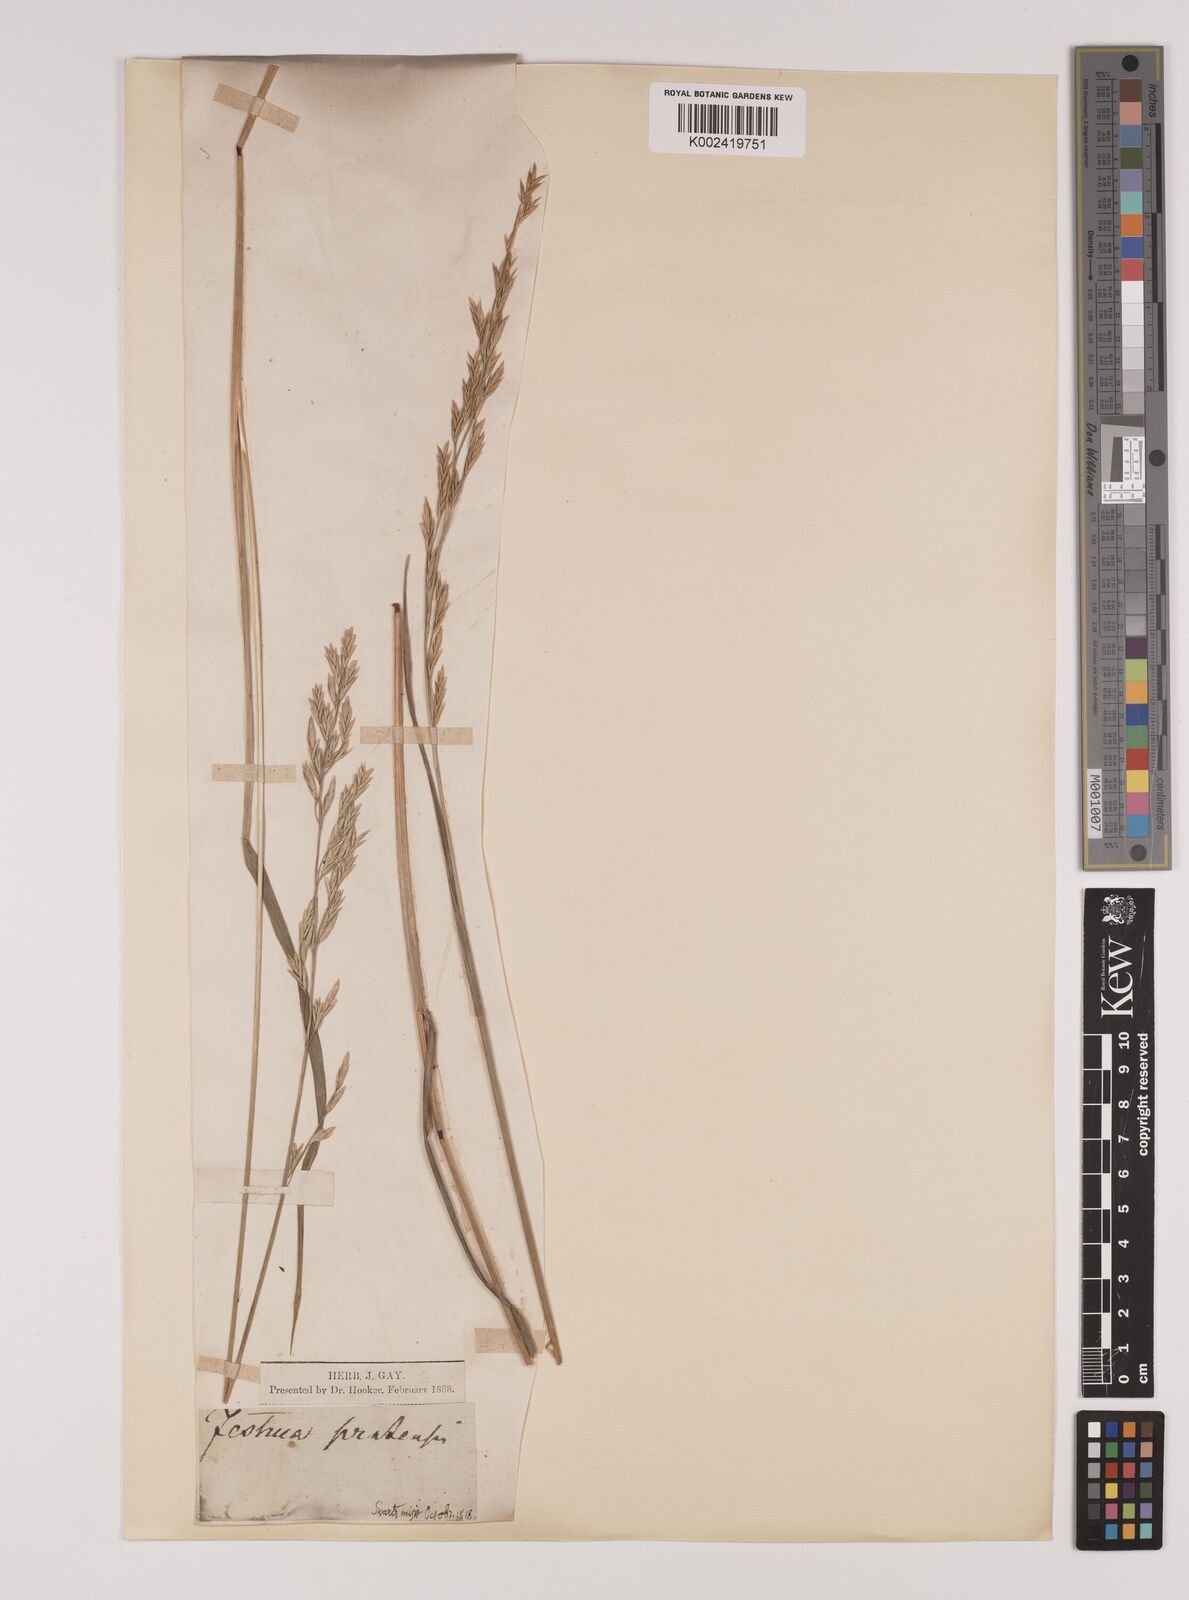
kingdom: Plantae
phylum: Tracheophyta
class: Liliopsida
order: Poales
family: Poaceae
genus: Lolium
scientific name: Lolium pratense
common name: Dover grass
